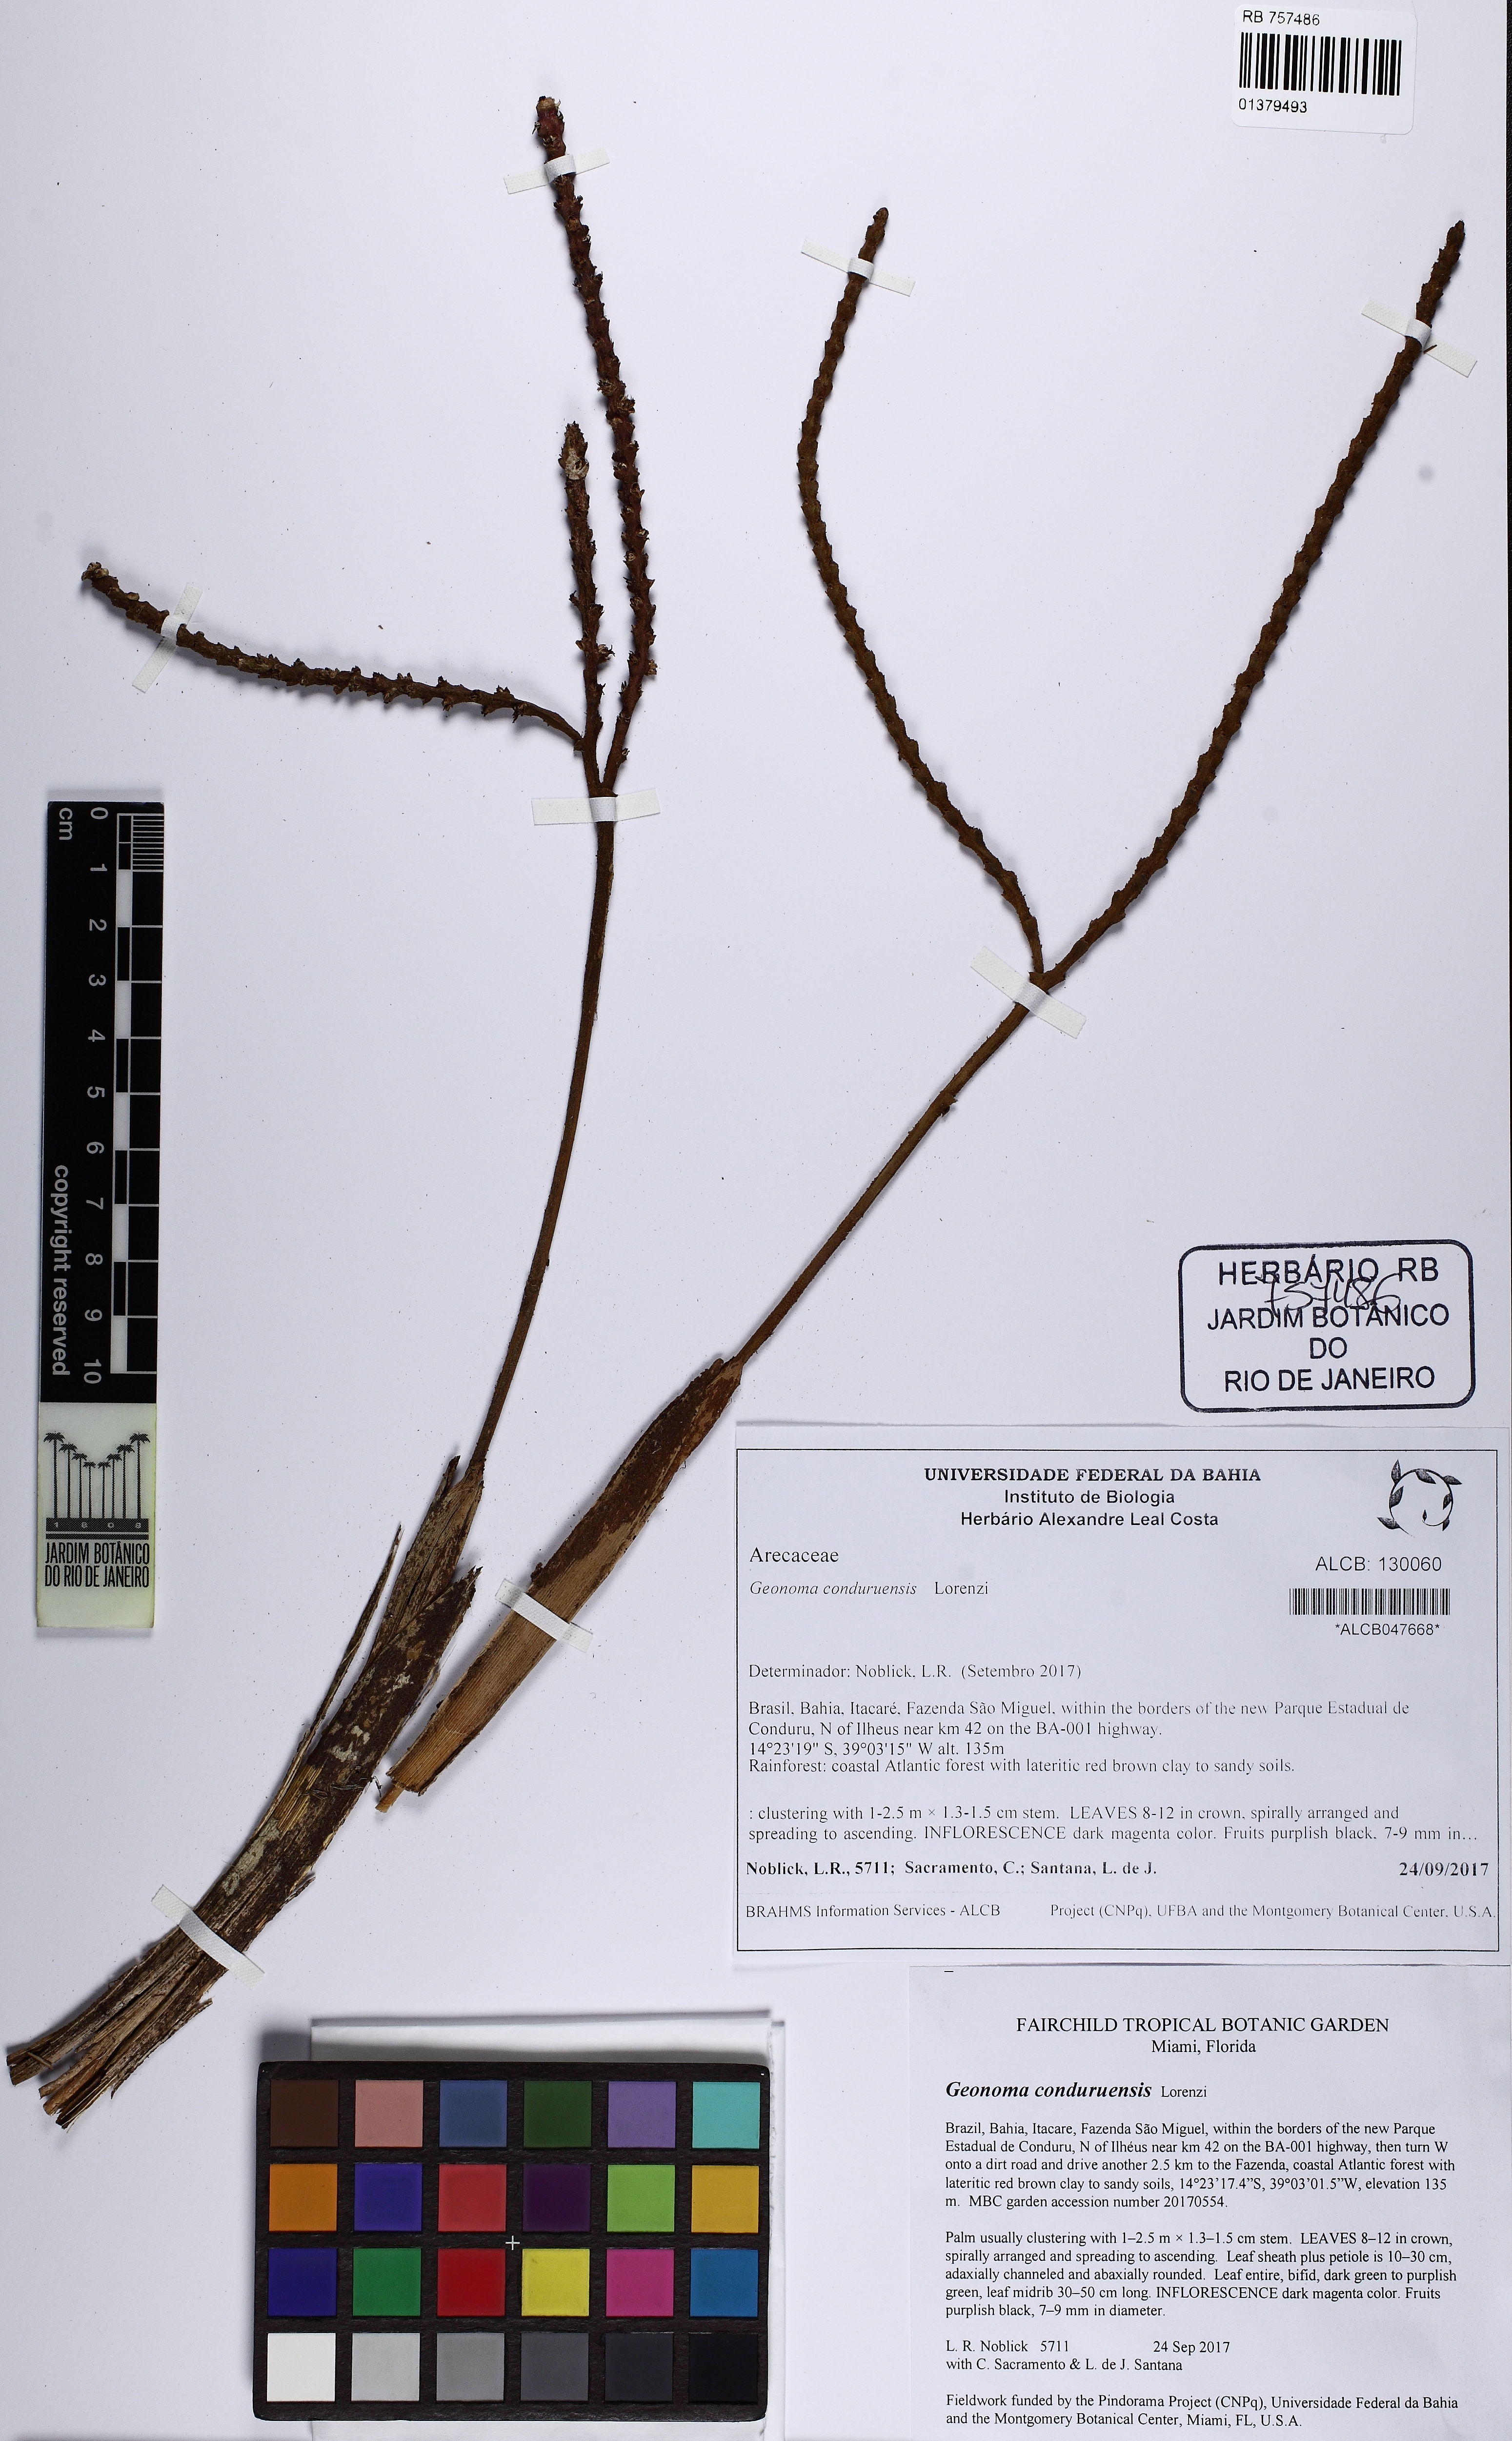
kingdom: Plantae
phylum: Tracheophyta
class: Liliopsida
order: Arecales
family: Arecaceae
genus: Geonoma
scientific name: Geonoma pauciflora
